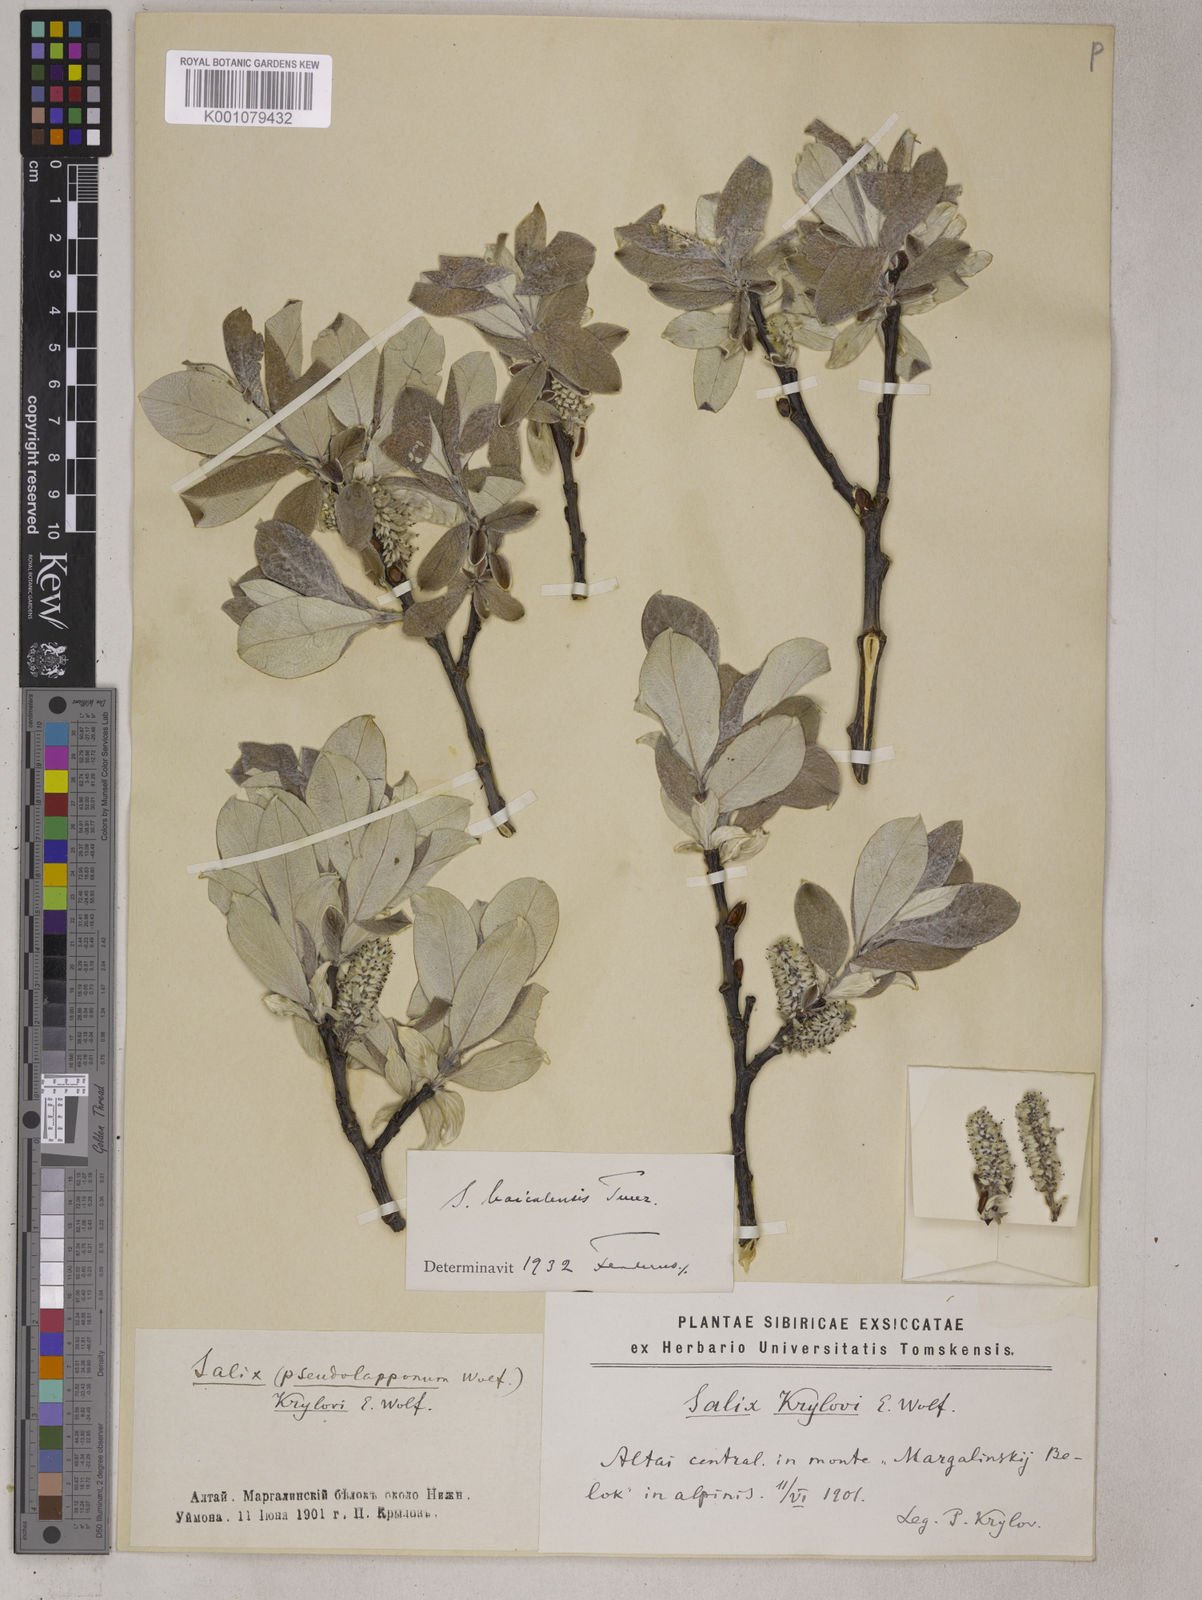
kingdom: Plantae
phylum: Tracheophyta
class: Magnoliopsida
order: Malpighiales
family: Salicaceae
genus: Salix
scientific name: Salix krylovii
